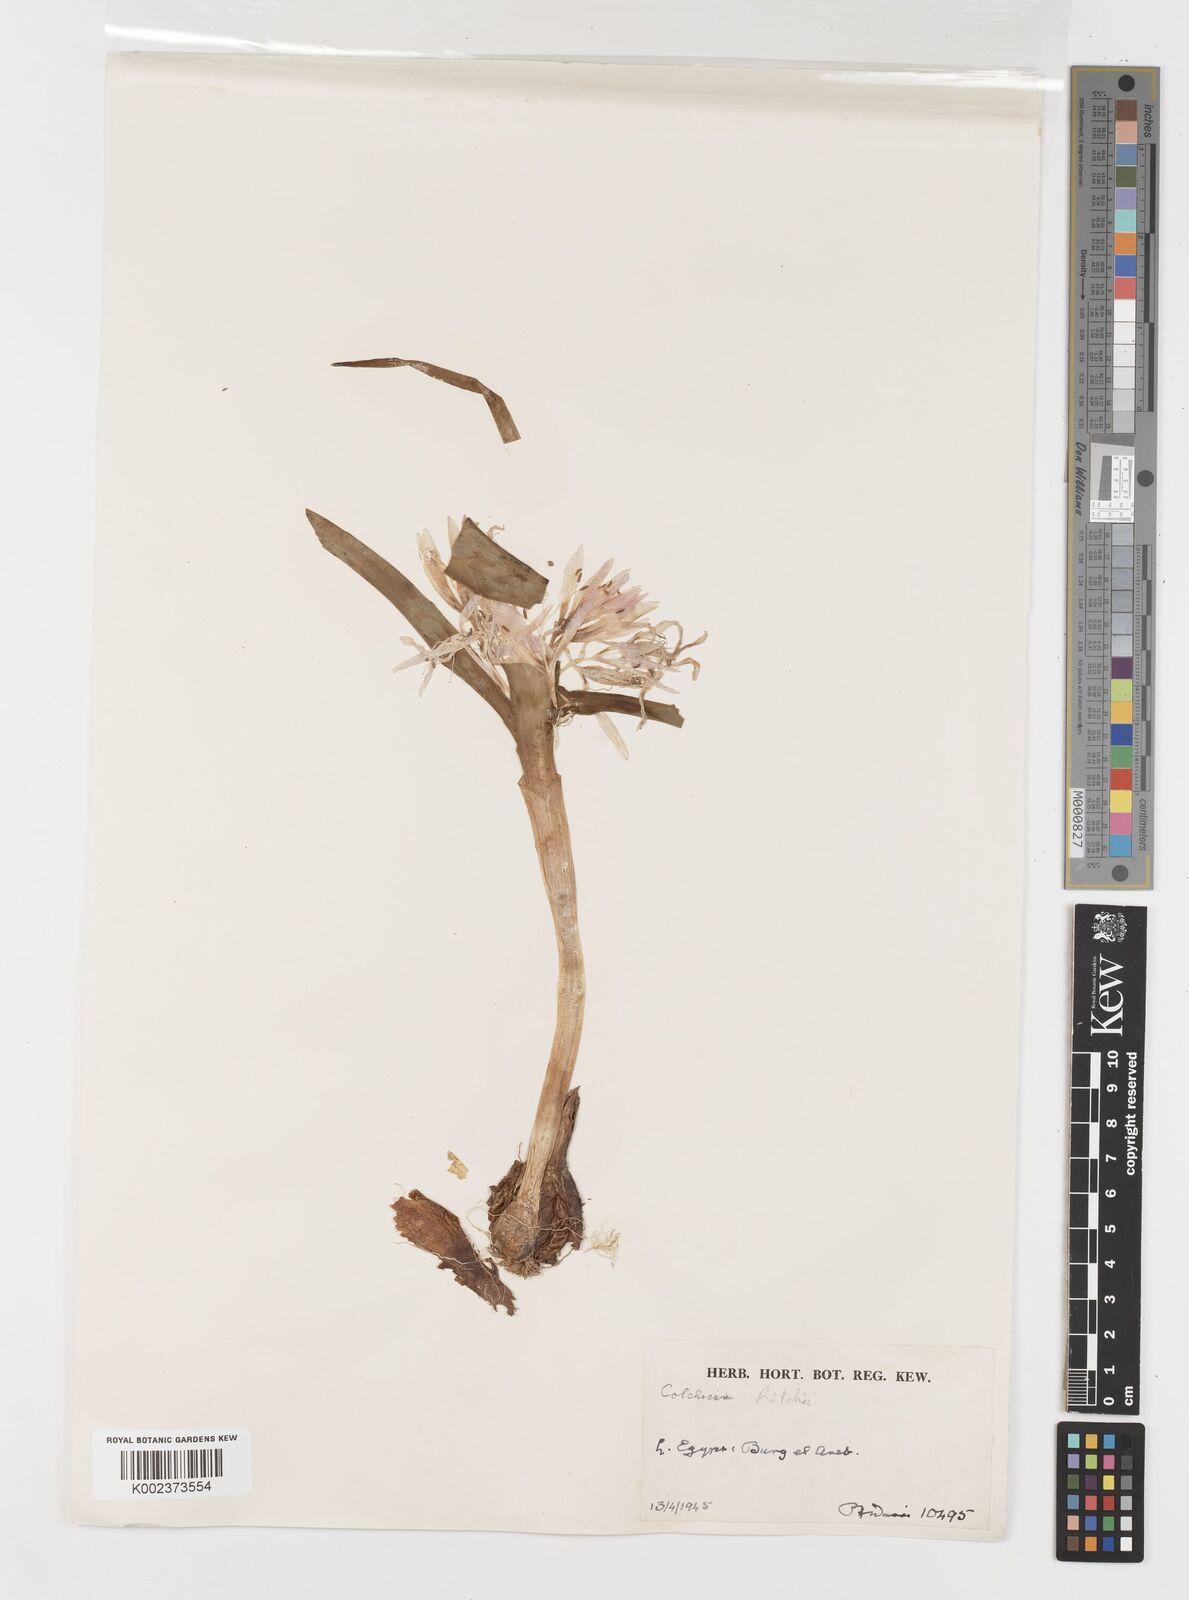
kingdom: Plantae
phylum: Tracheophyta
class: Liliopsida
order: Liliales
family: Colchicaceae
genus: Colchicum
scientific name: Colchicum ritchii
